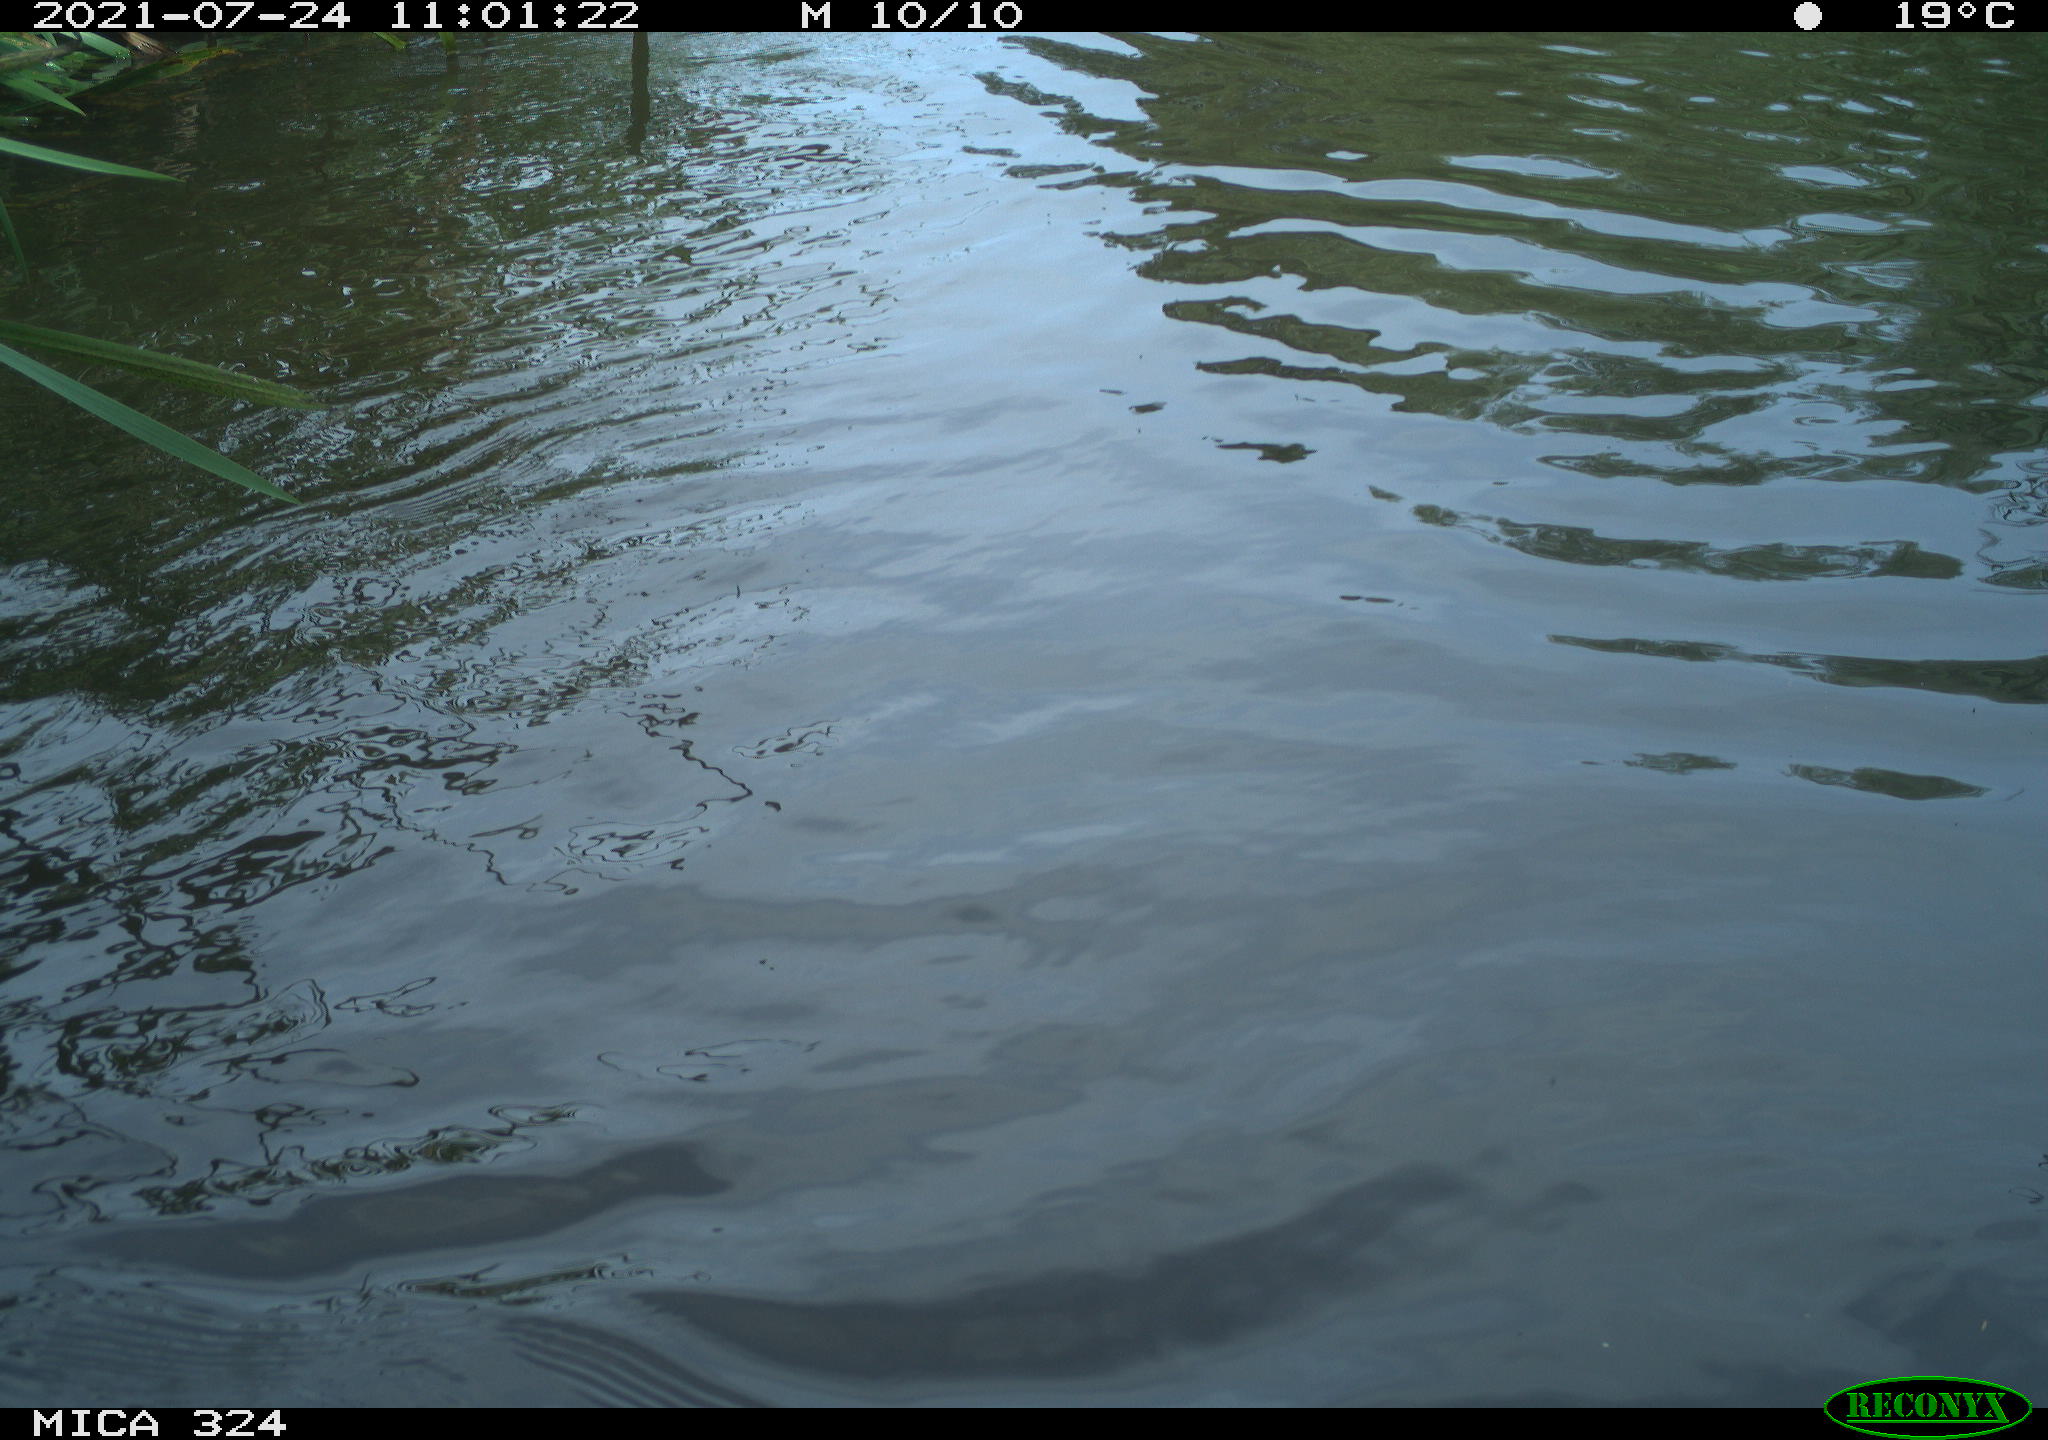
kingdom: Animalia
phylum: Chordata
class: Aves
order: Anseriformes
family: Anatidae
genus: Anas
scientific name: Anas platyrhynchos
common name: Mallard
